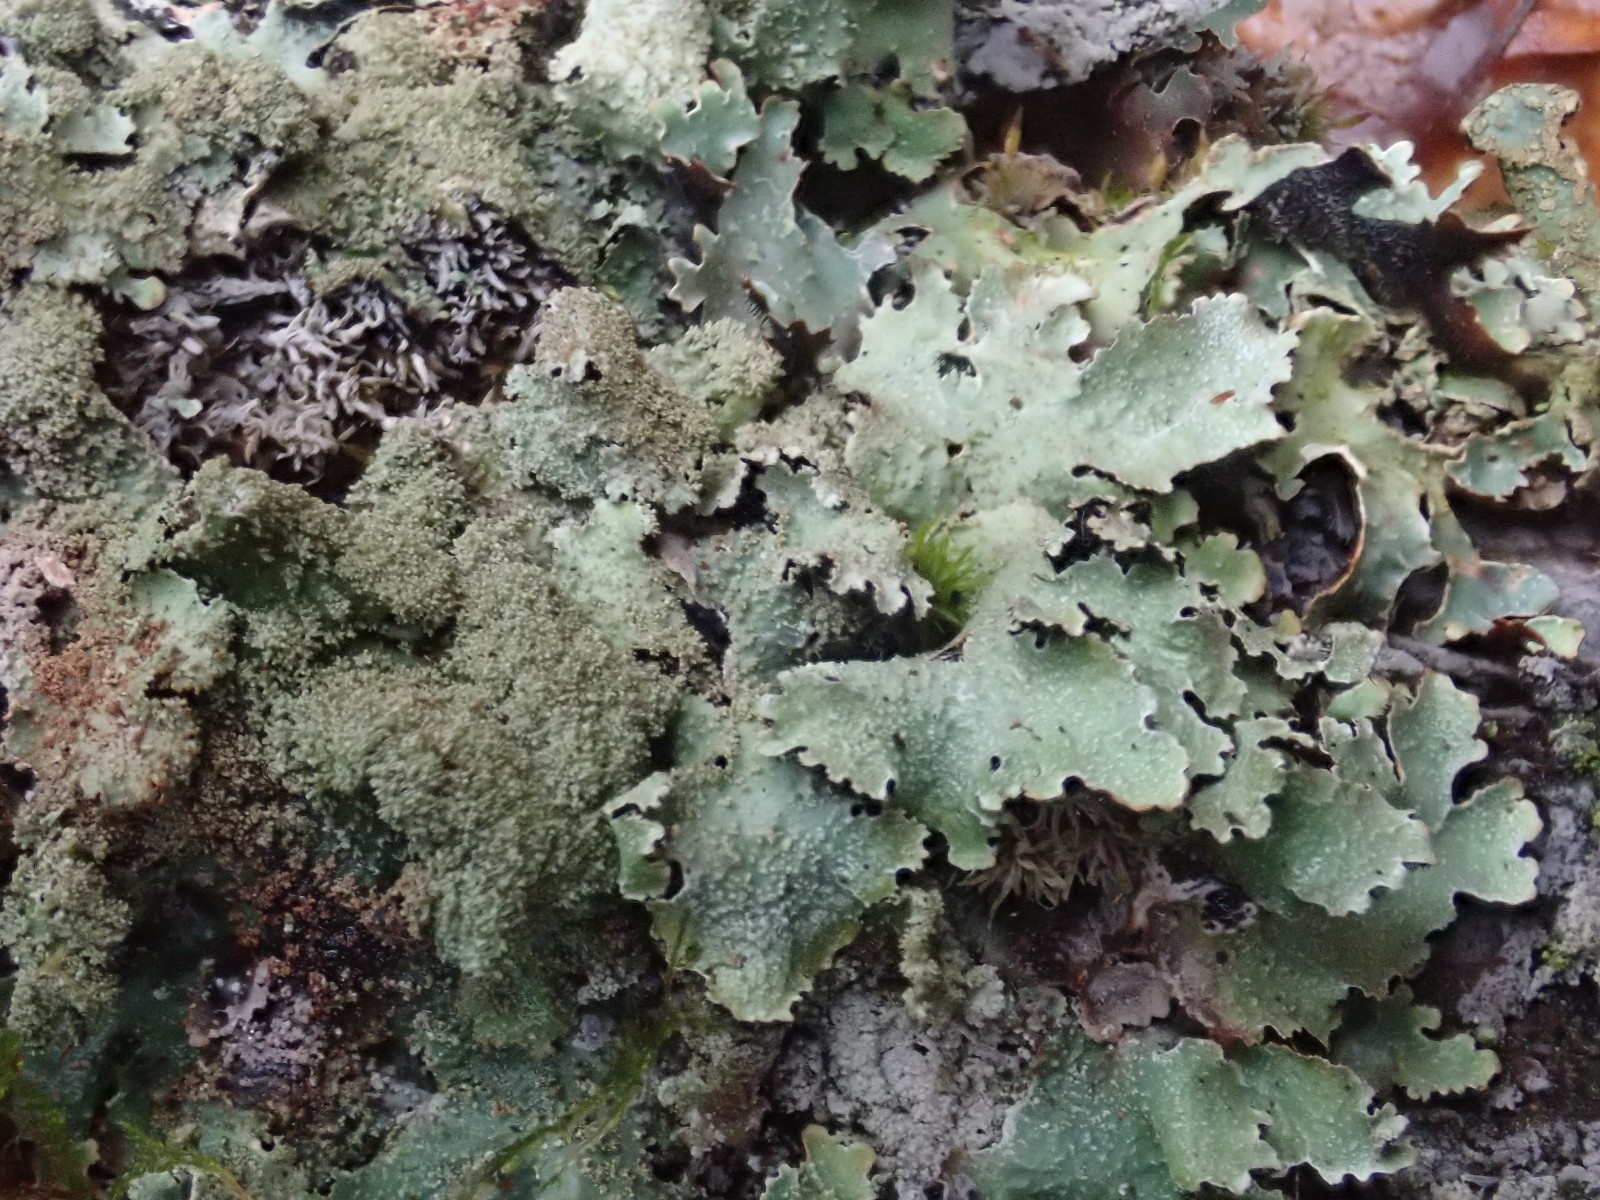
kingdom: Fungi
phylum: Ascomycota
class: Lecanoromycetes
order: Lecanorales
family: Parmeliaceae
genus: Parmelia
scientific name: Parmelia saxatilis
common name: farve-skållav
